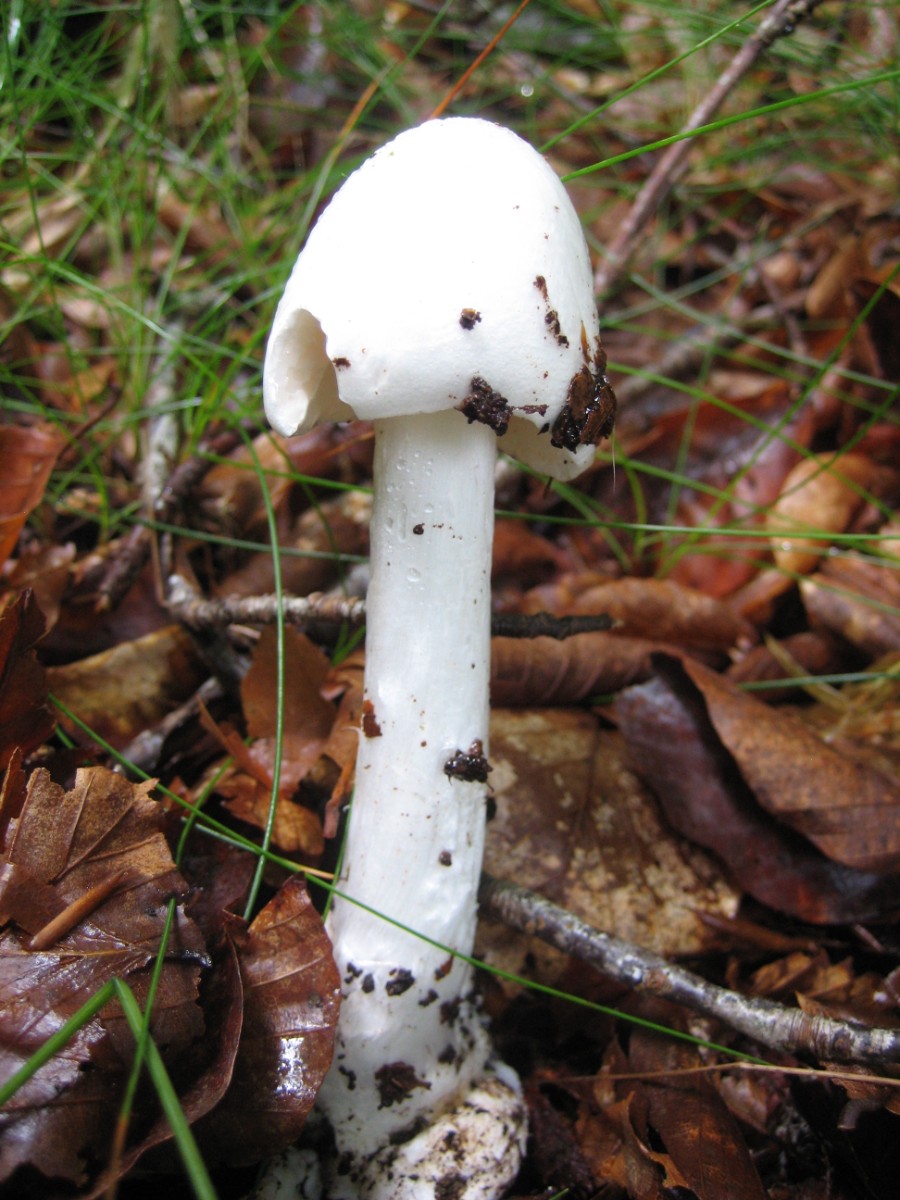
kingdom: Fungi
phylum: Basidiomycota
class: Agaricomycetes
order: Agaricales
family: Amanitaceae
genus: Amanita
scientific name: Amanita virosa
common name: snehvid fluesvamp
